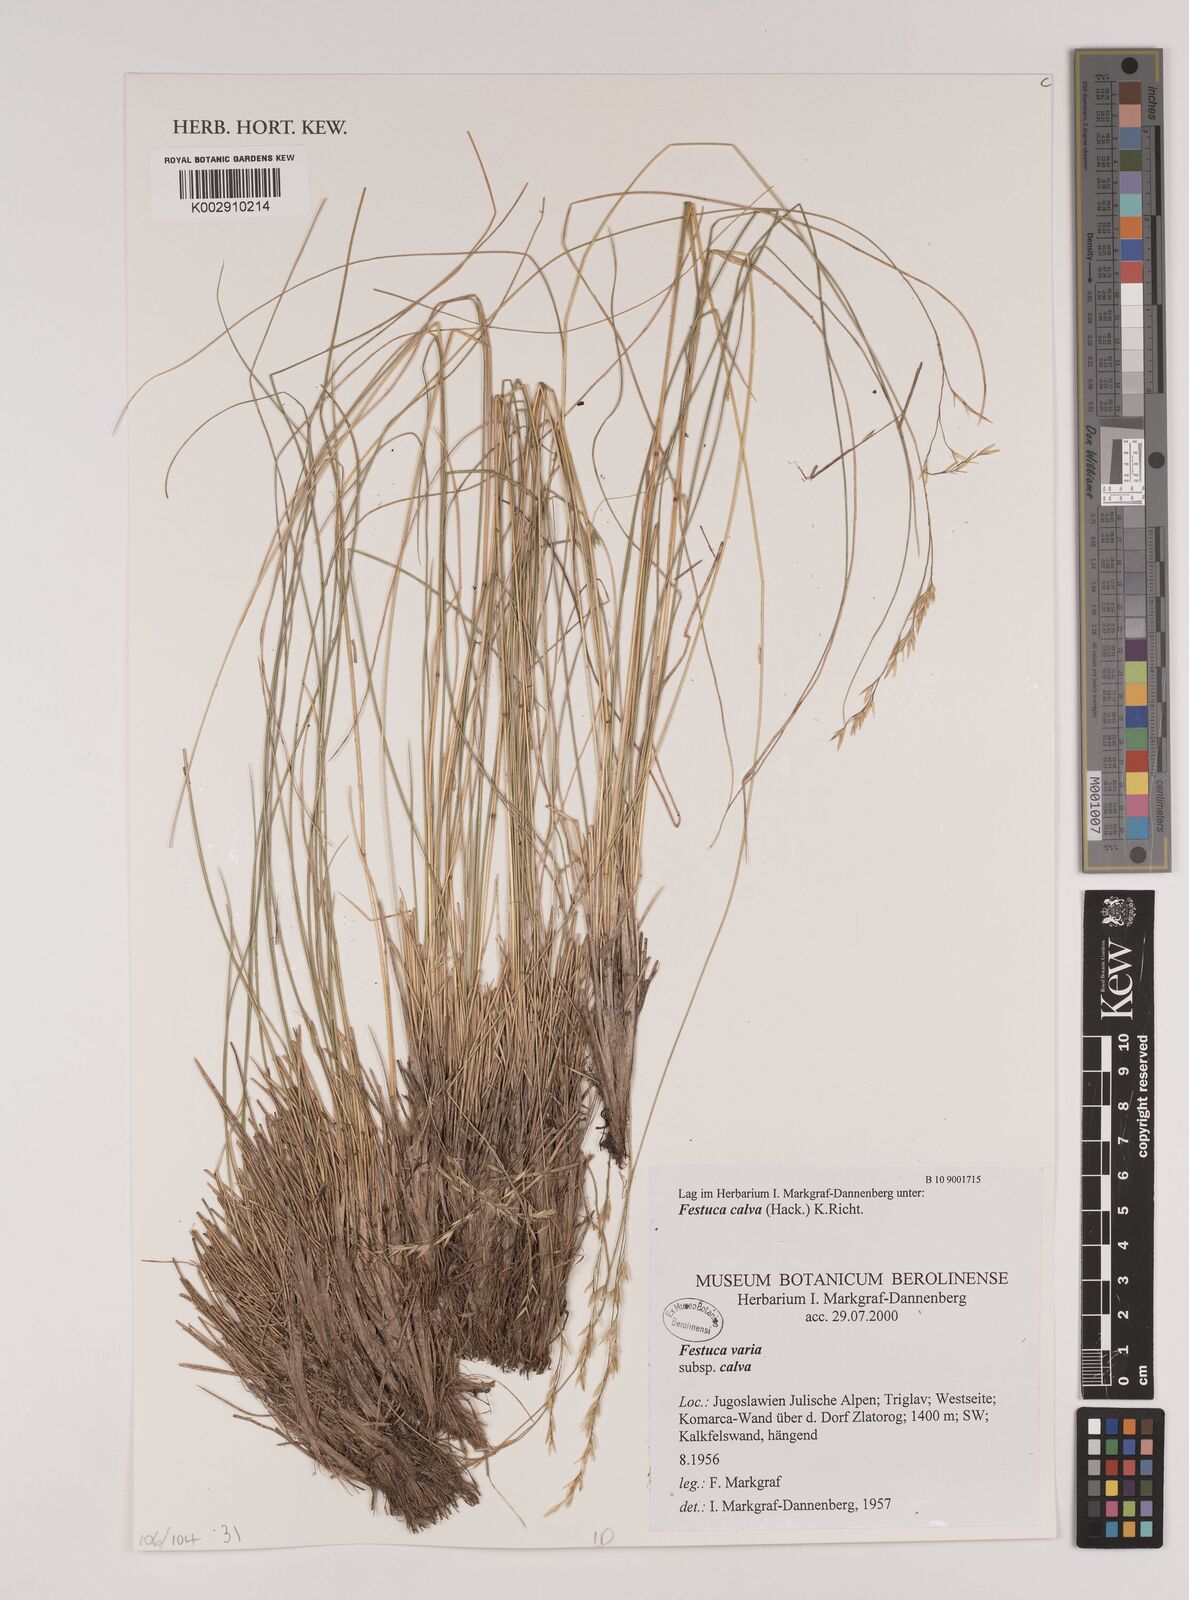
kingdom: Plantae
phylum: Tracheophyta
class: Liliopsida
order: Poales
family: Poaceae
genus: Festuca
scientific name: Festuca calva
